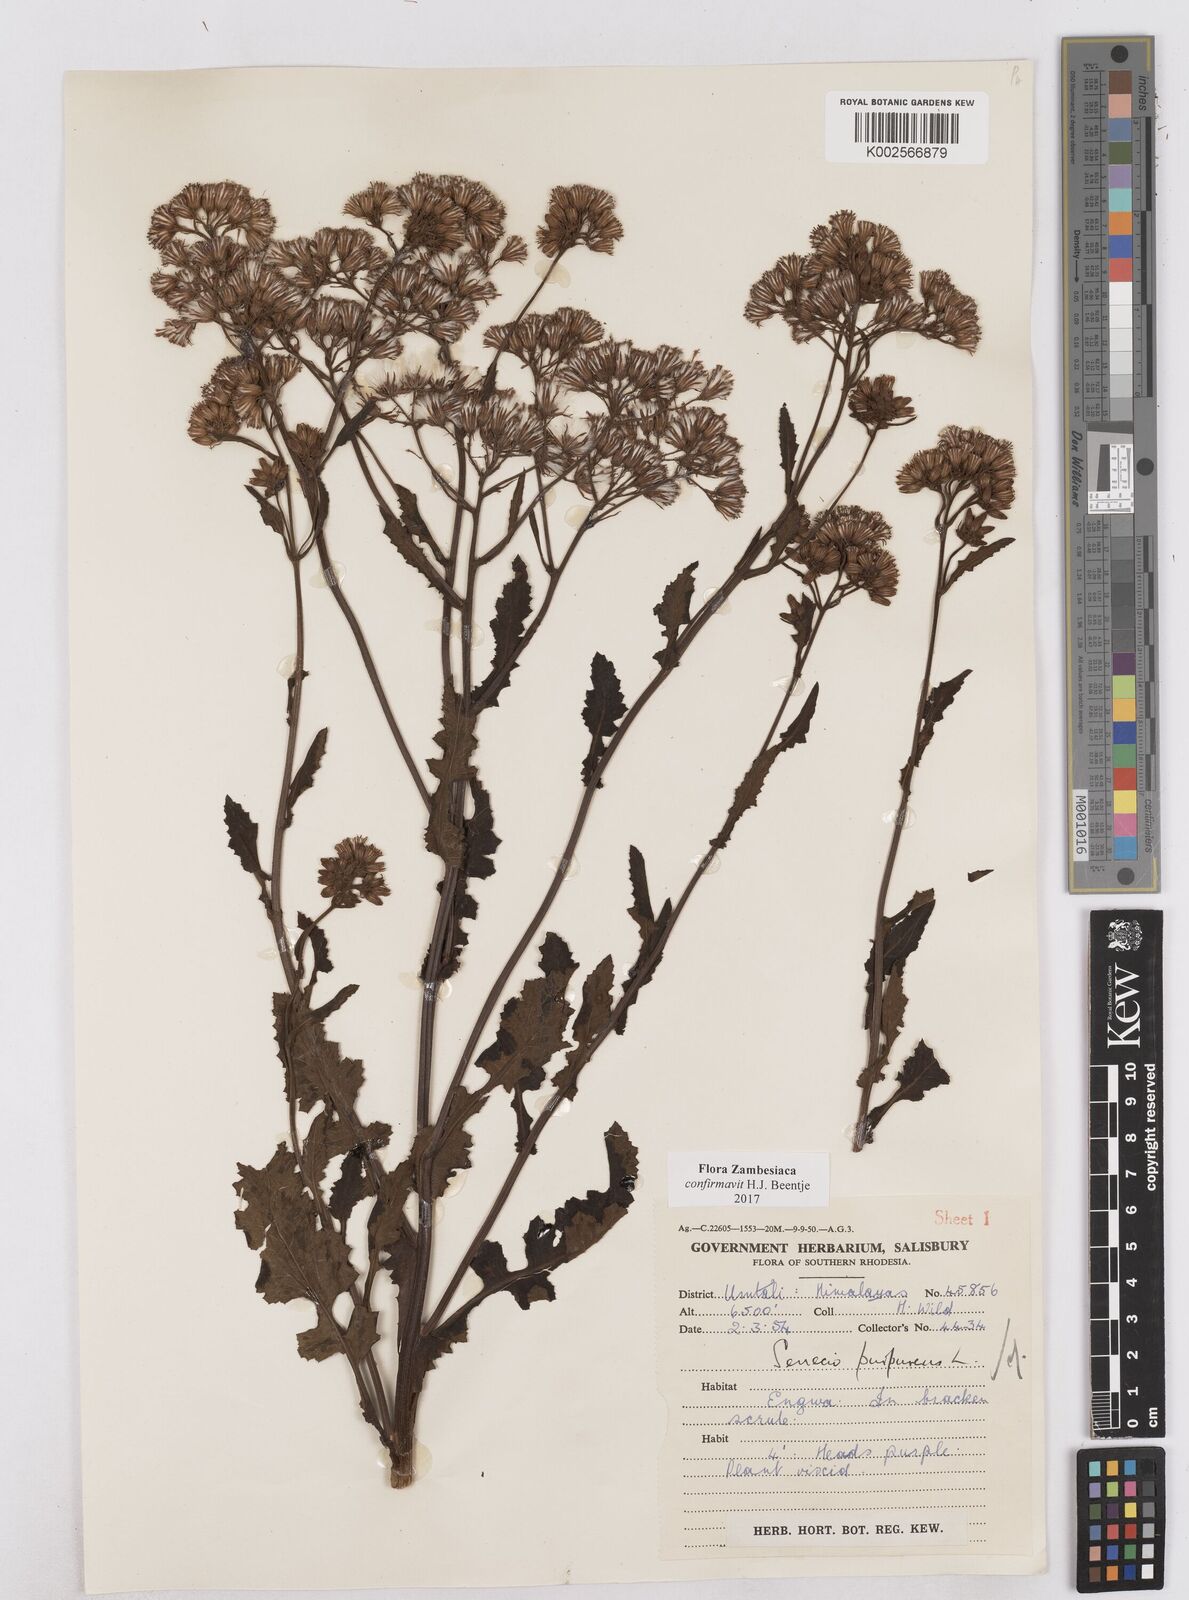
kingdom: Plantae
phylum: Tracheophyta
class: Magnoliopsida
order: Asterales
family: Asteraceae
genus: Senecio
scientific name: Senecio purpureus
